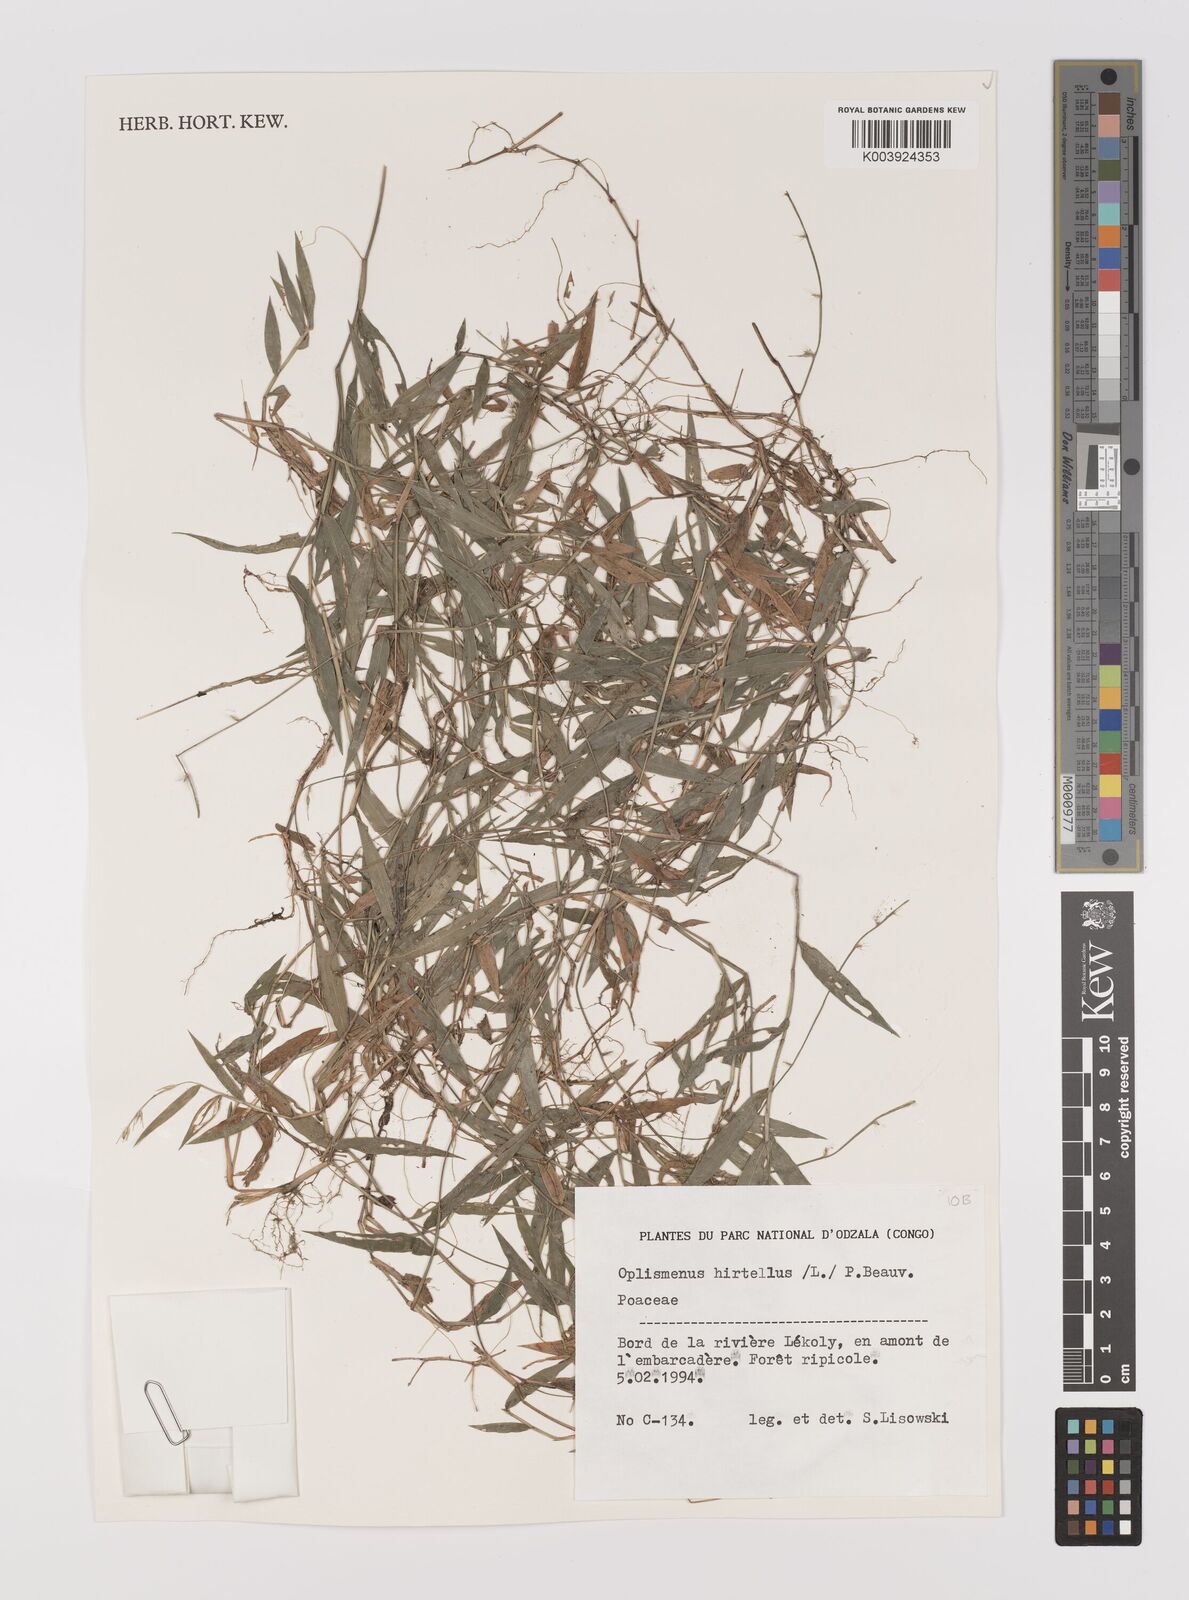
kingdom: Plantae
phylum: Tracheophyta
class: Liliopsida
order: Poales
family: Poaceae
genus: Oplismenus
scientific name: Oplismenus hirtellus
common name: Basketgrass
